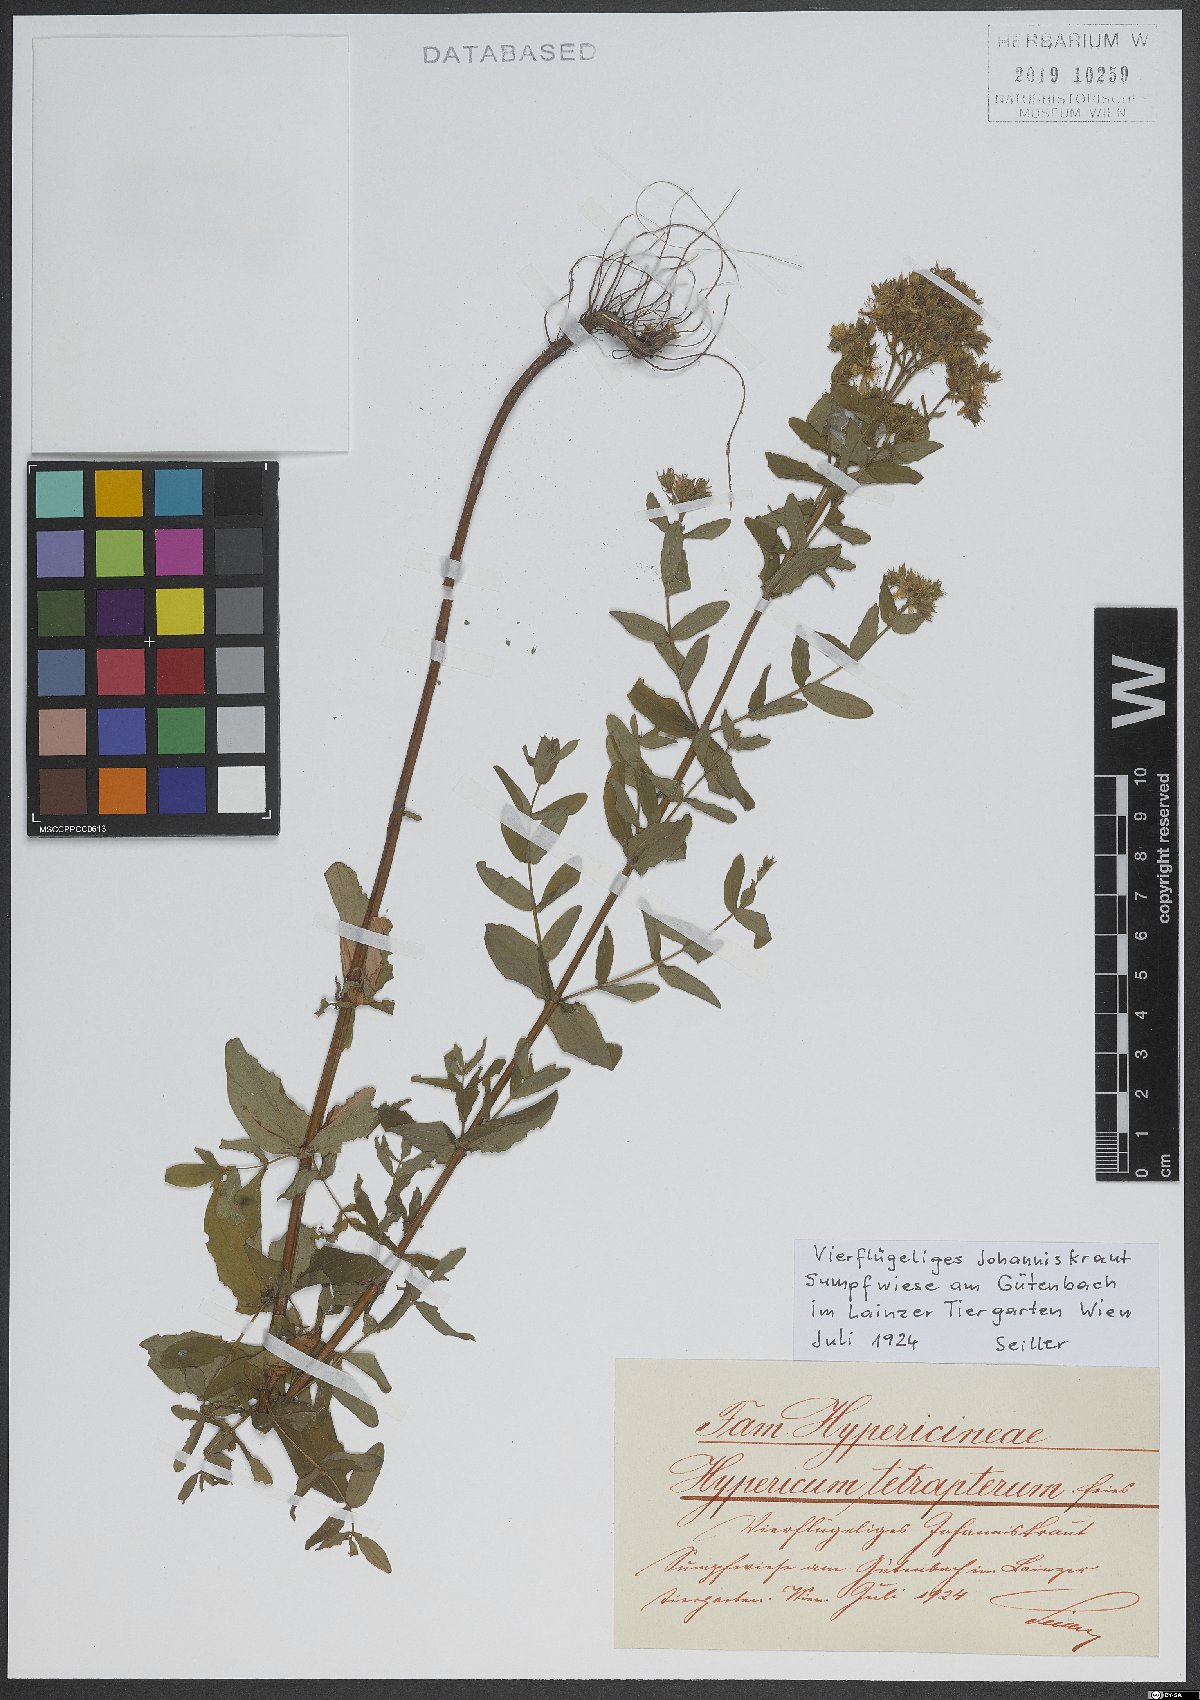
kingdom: Plantae
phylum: Tracheophyta
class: Magnoliopsida
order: Malpighiales
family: Hypericaceae
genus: Hypericum
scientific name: Hypericum tetrapterum
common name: Square-stalked st. john's-wort
